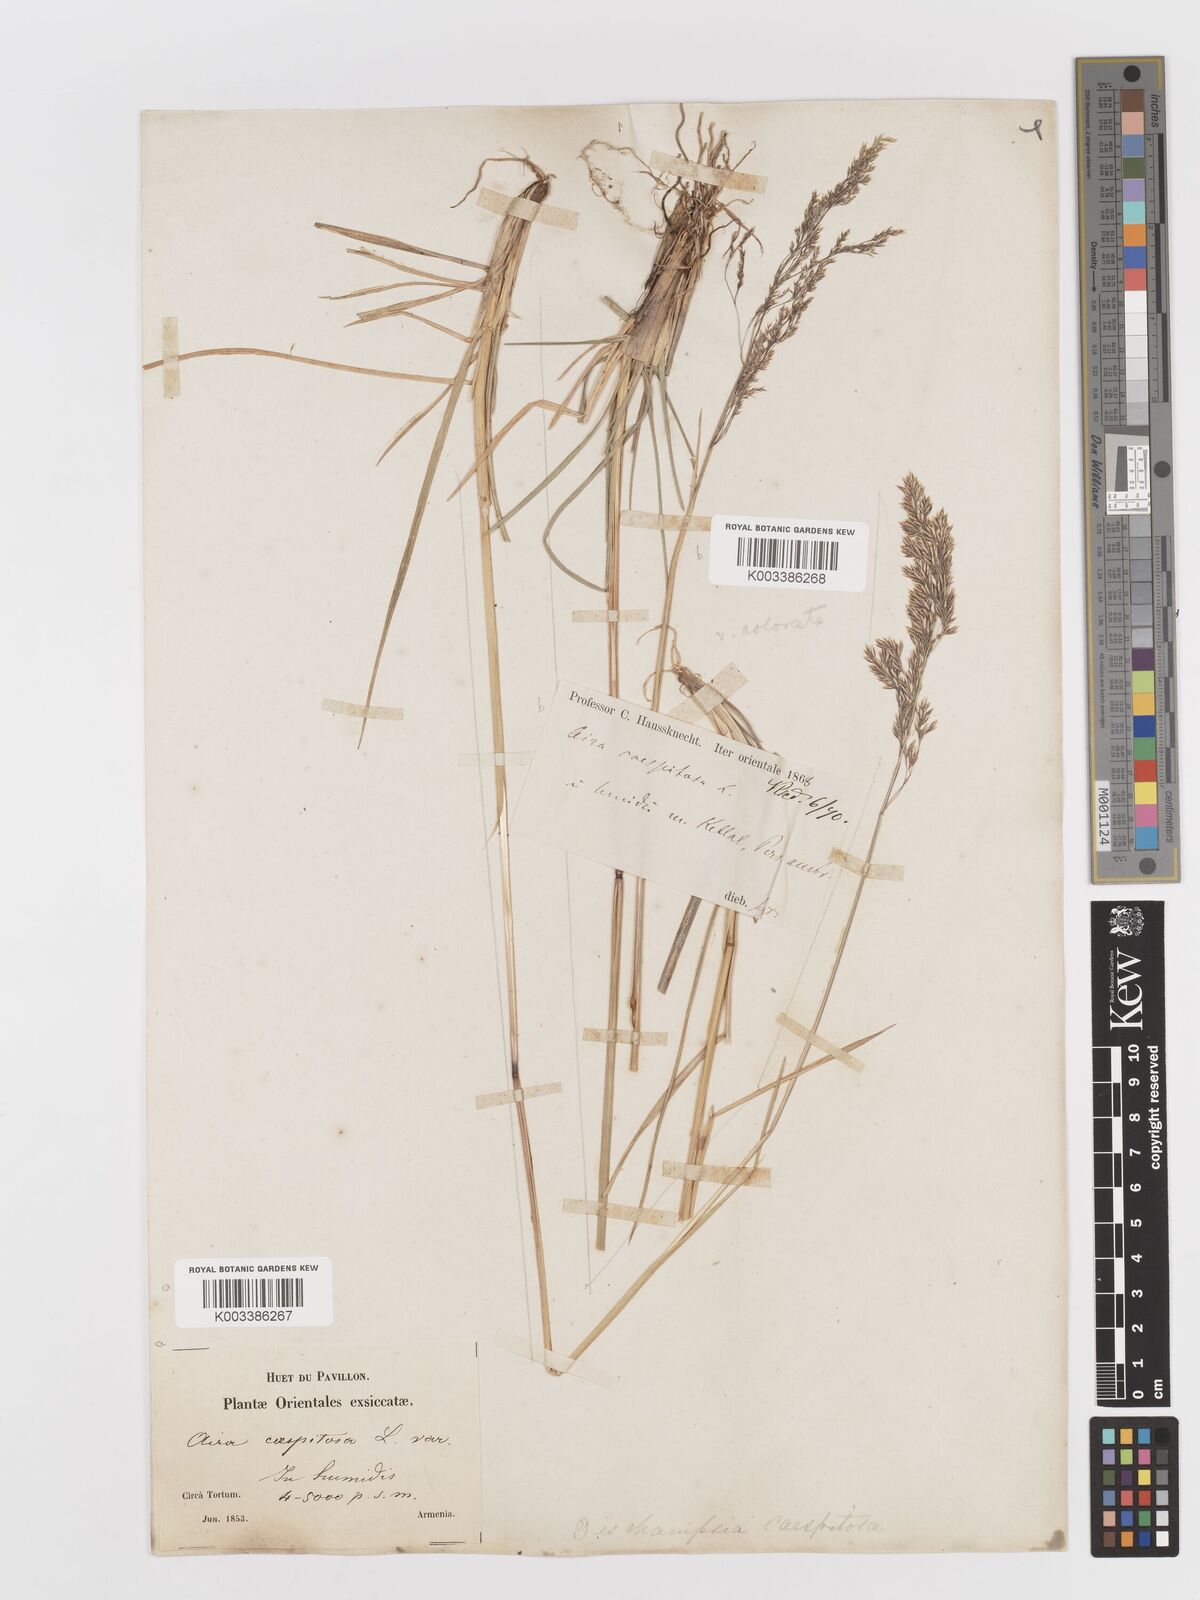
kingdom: Plantae
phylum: Tracheophyta
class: Liliopsida
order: Poales
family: Poaceae
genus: Deschampsia
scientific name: Deschampsia cespitosa
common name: Tufted hair-grass
